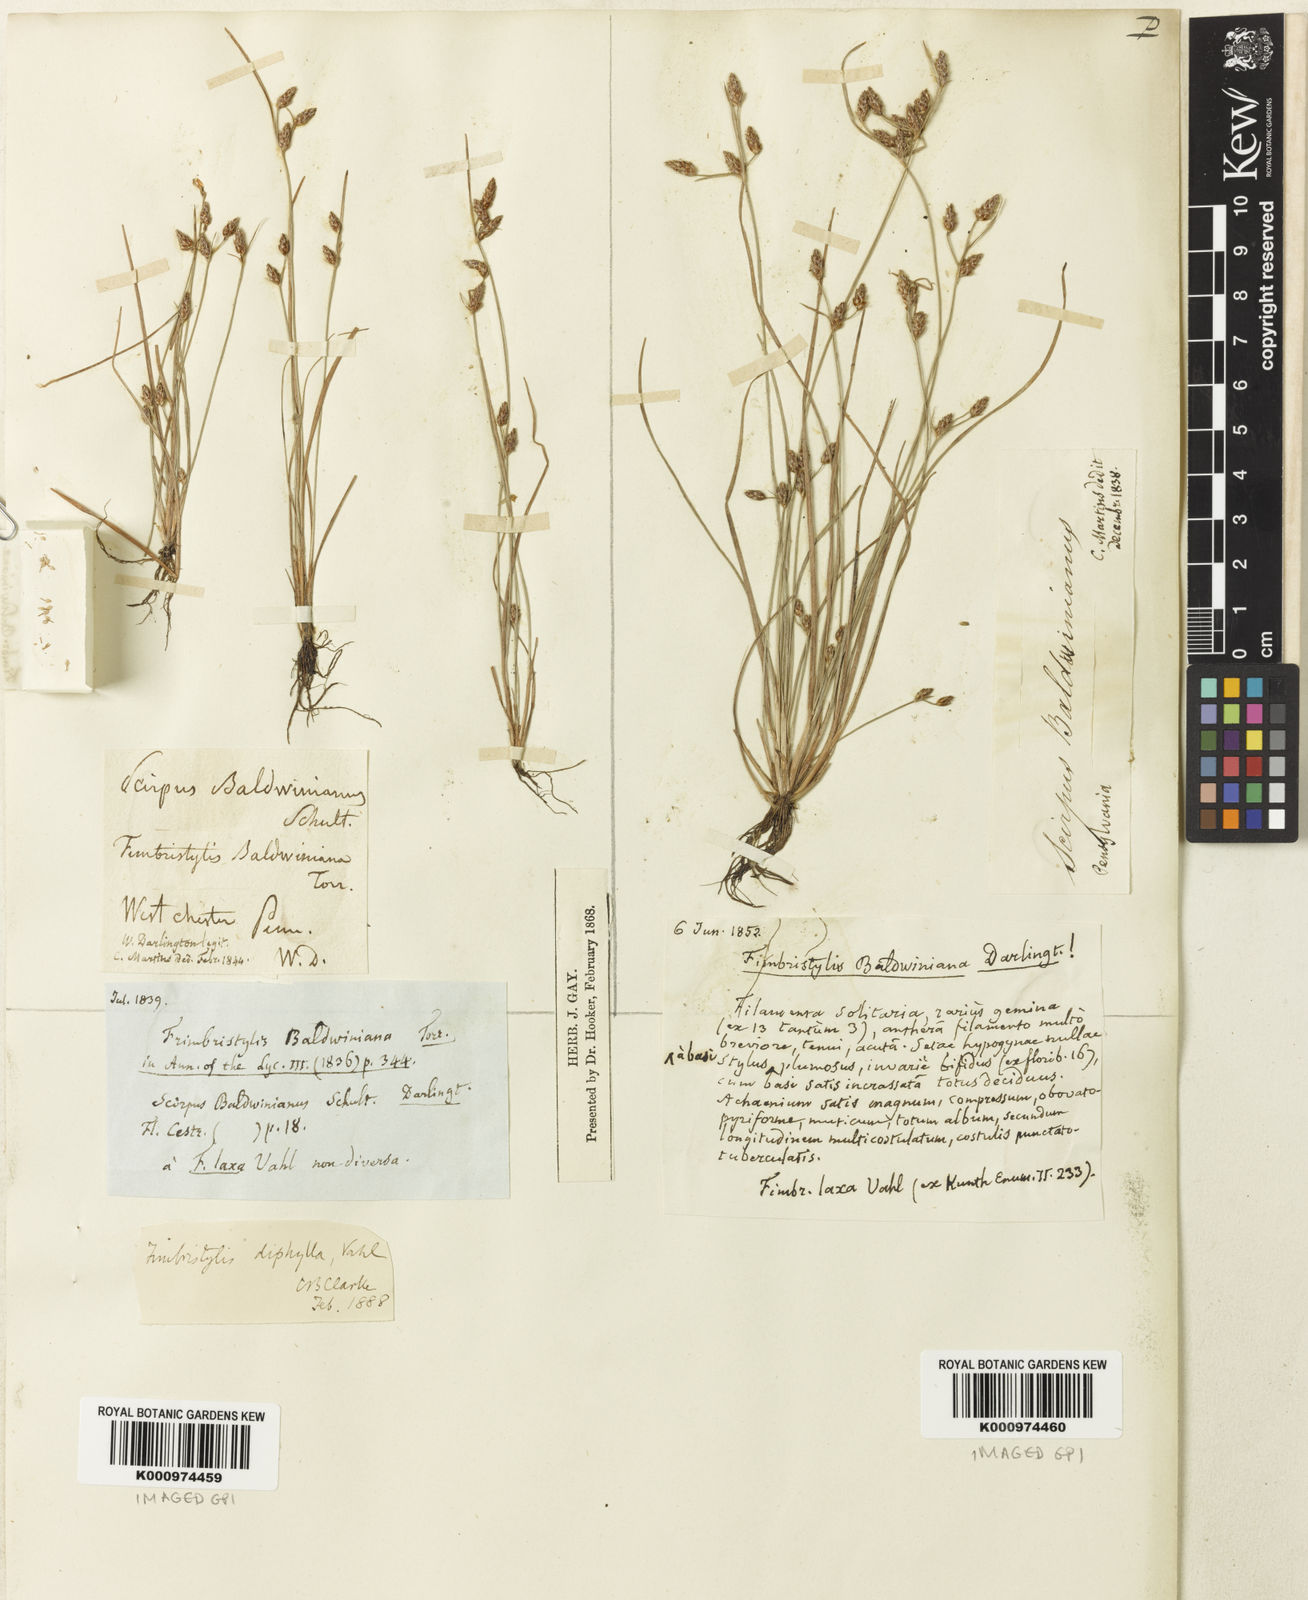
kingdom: Plantae
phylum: Tracheophyta
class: Liliopsida
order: Poales
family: Cyperaceae
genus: Fimbristylis
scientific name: Fimbristylis dichotoma
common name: Forked fimbry
